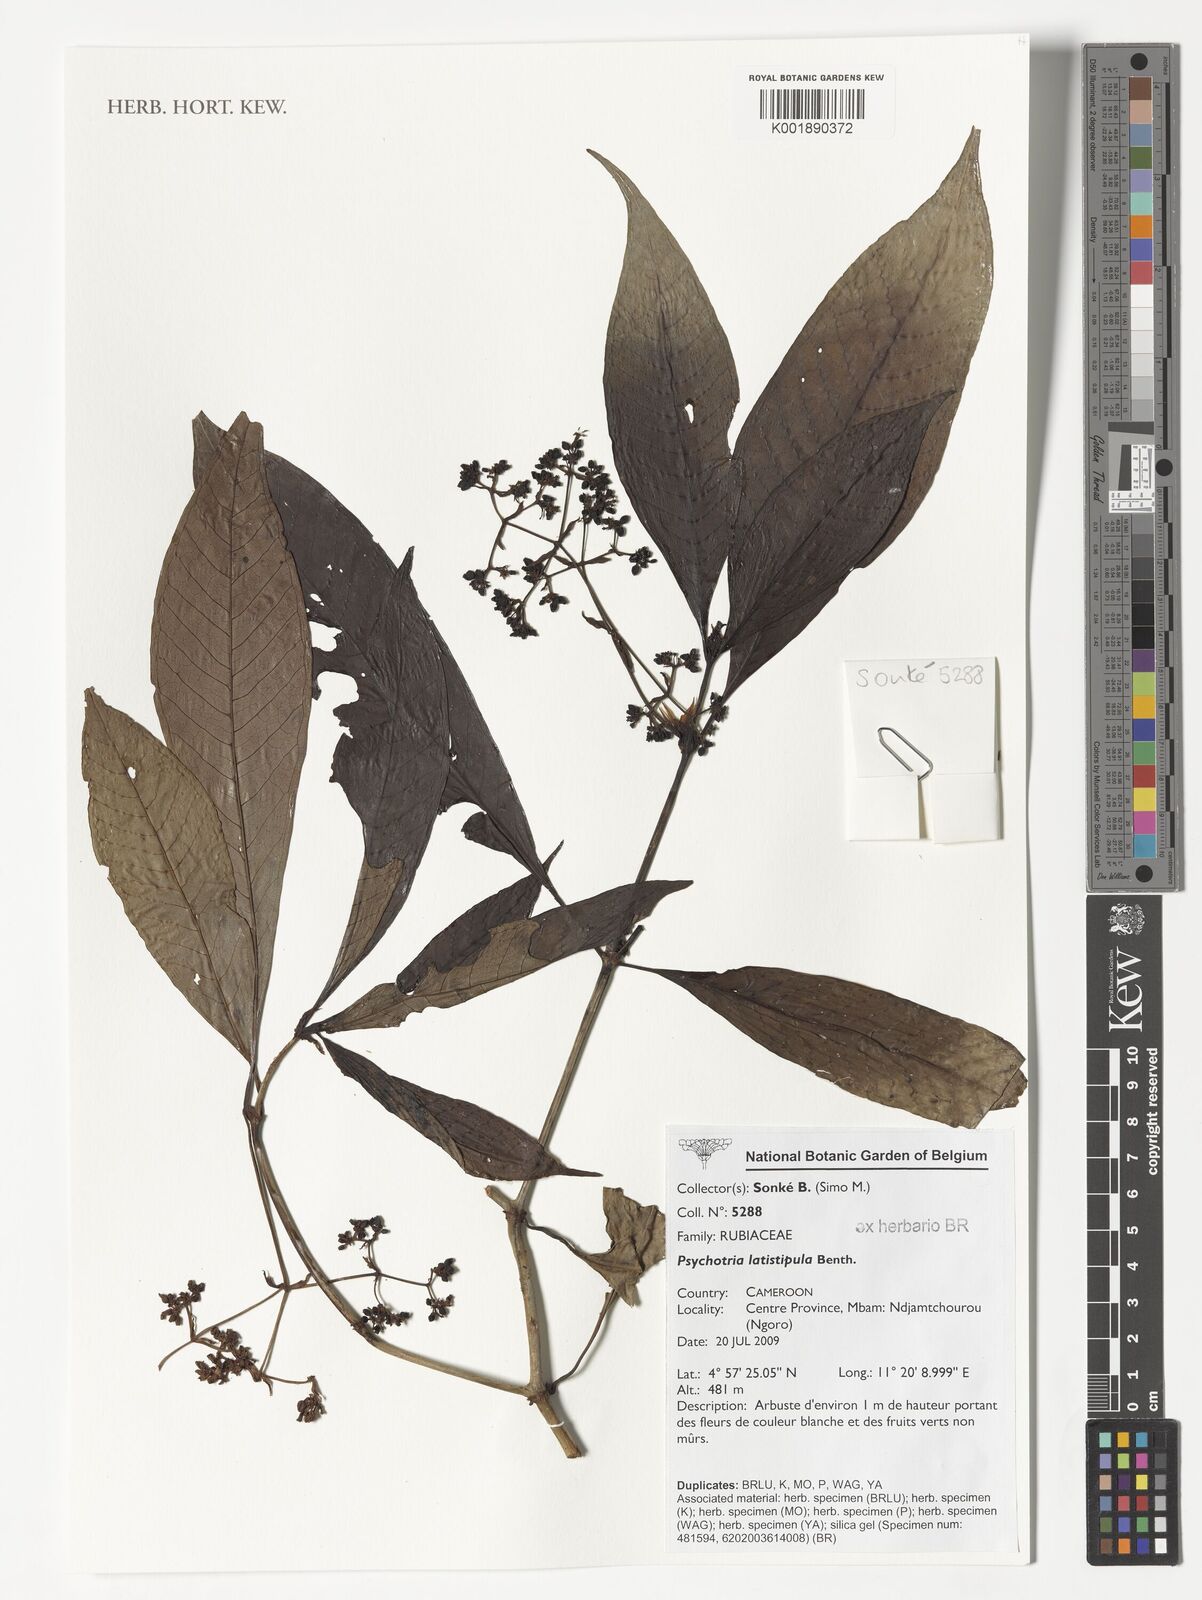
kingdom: Plantae
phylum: Tracheophyta
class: Magnoliopsida
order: Gentianales
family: Rubiaceae
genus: Psychotria
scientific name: Psychotria latistipula
